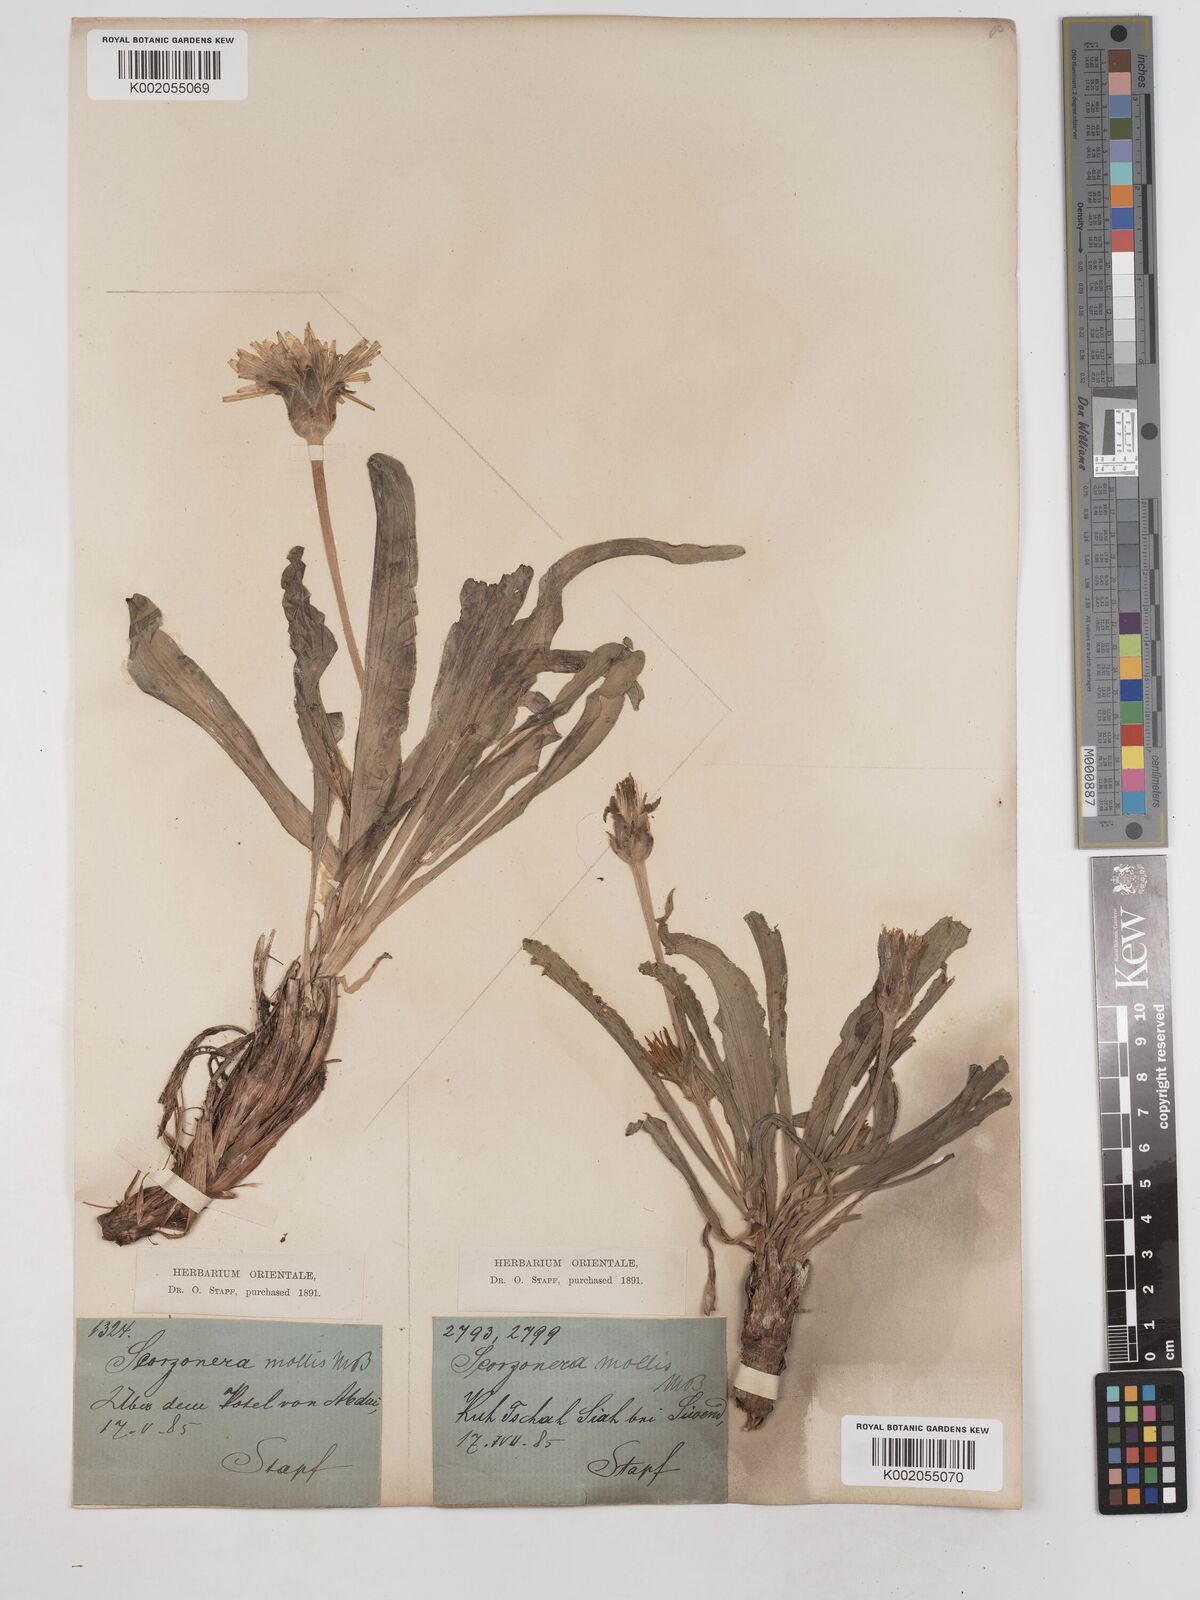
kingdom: Plantae
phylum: Tracheophyta
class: Magnoliopsida
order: Asterales
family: Asteraceae
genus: Candollea
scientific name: Candollea mollis
